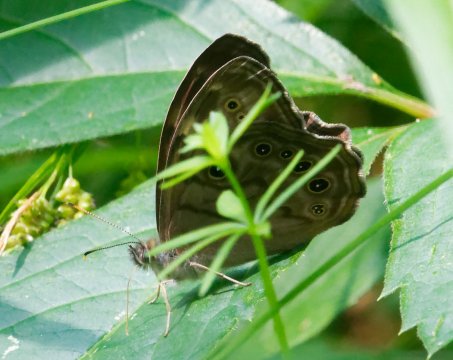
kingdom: Animalia
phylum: Arthropoda
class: Insecta
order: Lepidoptera
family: Nymphalidae
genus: Lethe
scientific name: Lethe anthedon
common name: Northern Pearly-Eye
